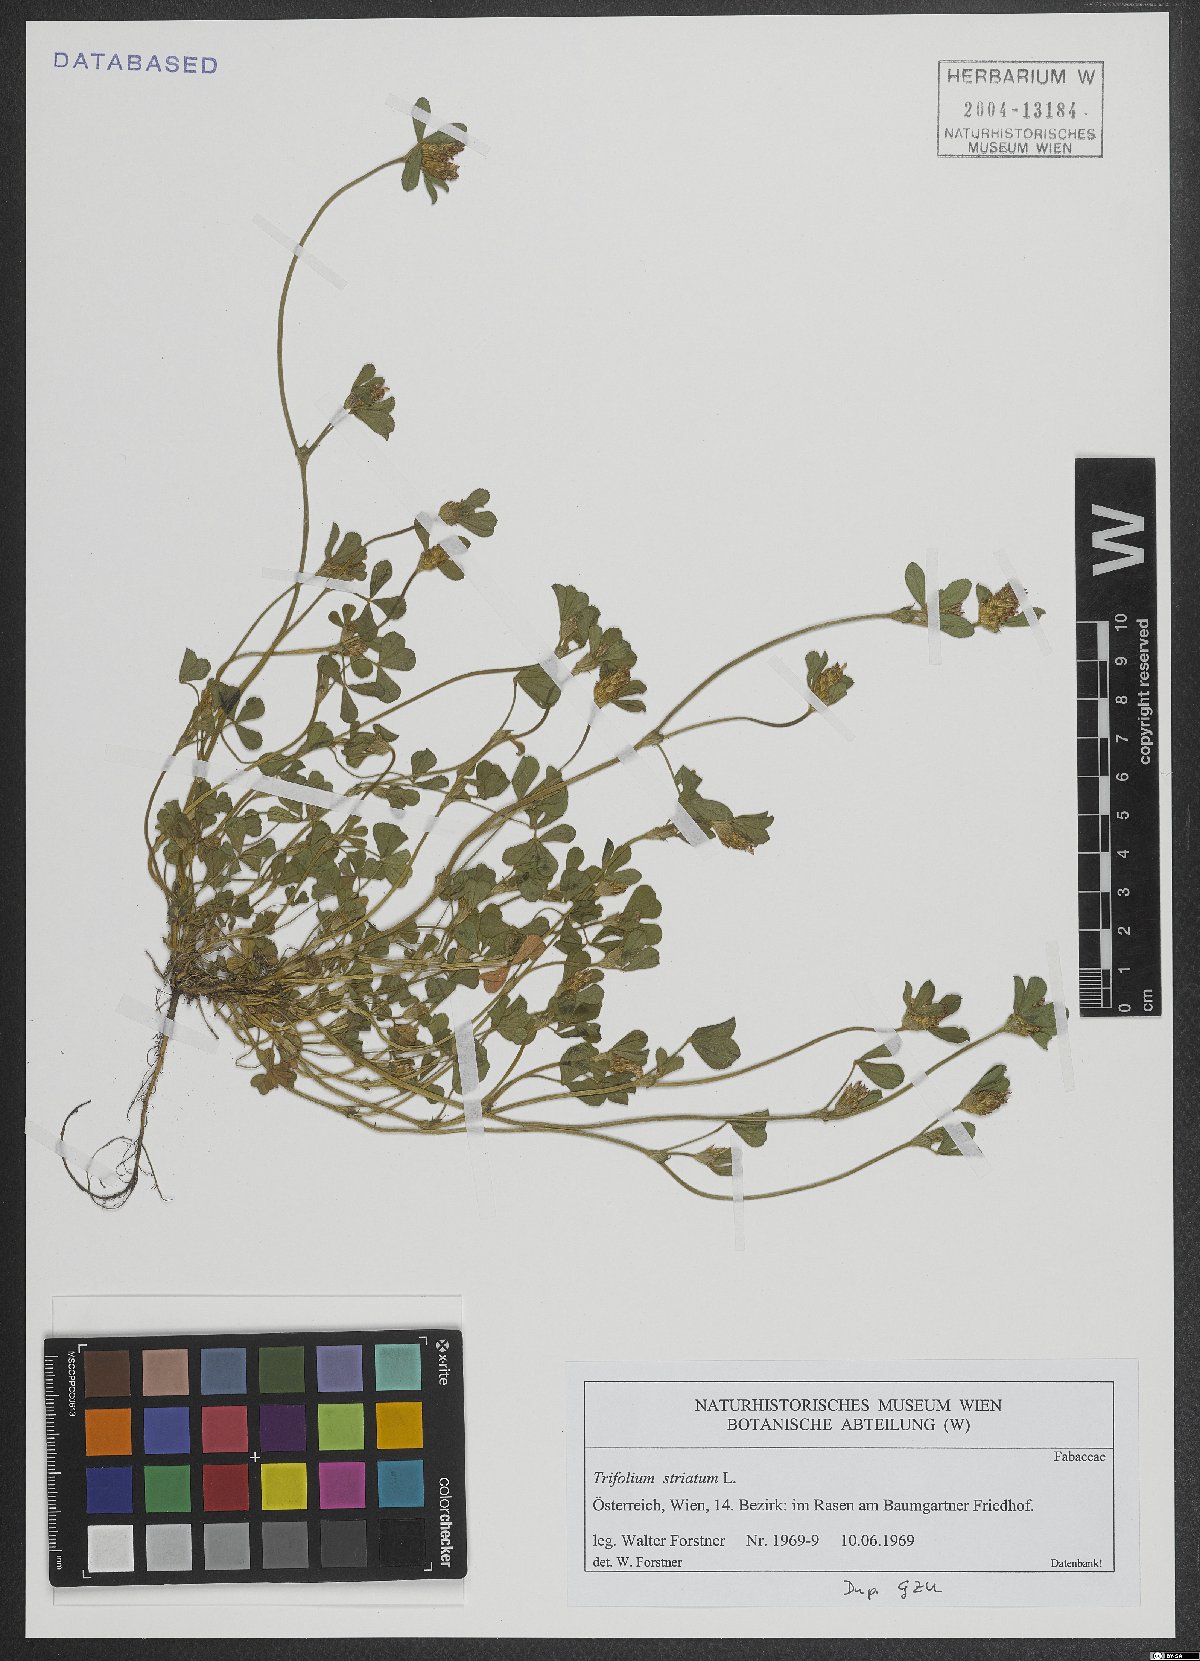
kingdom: Plantae
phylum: Tracheophyta
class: Magnoliopsida
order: Fabales
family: Fabaceae
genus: Trifolium
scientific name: Trifolium striatum
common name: Knotted clover
